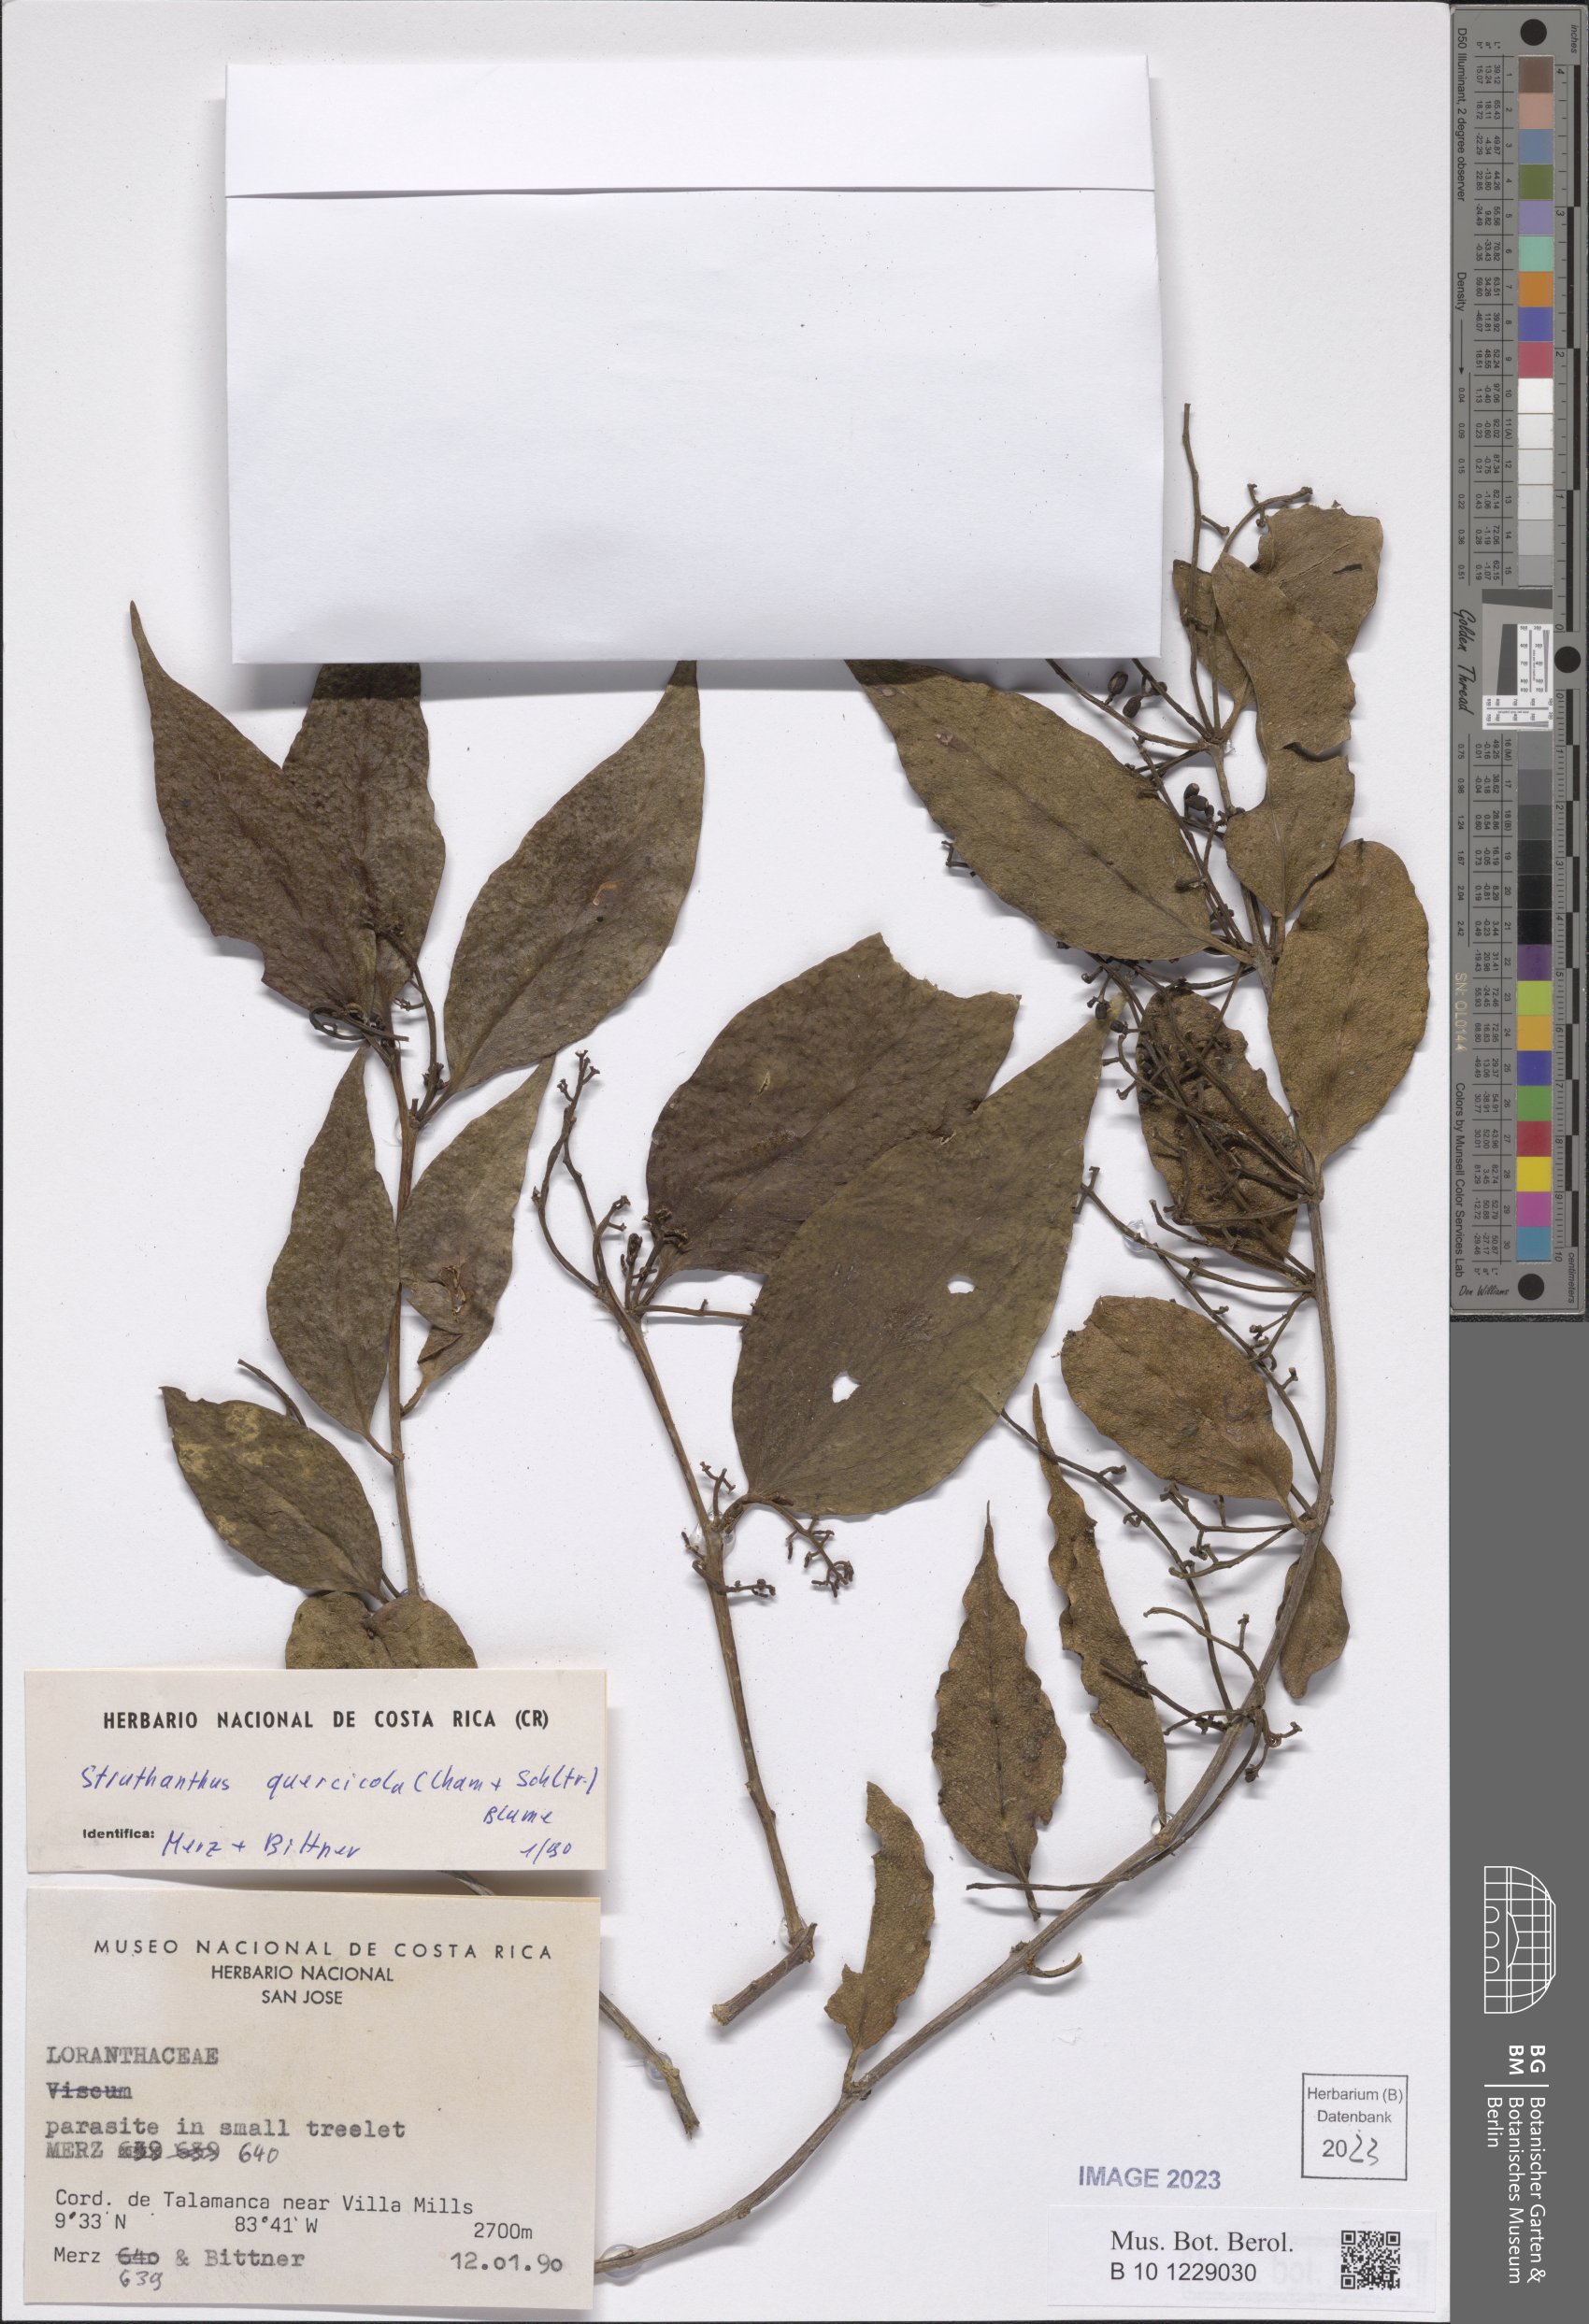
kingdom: Plantae
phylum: Tracheophyta
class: Magnoliopsida
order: Santalales
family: Loranthaceae
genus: Struthanthus
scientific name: Struthanthus quercicola
